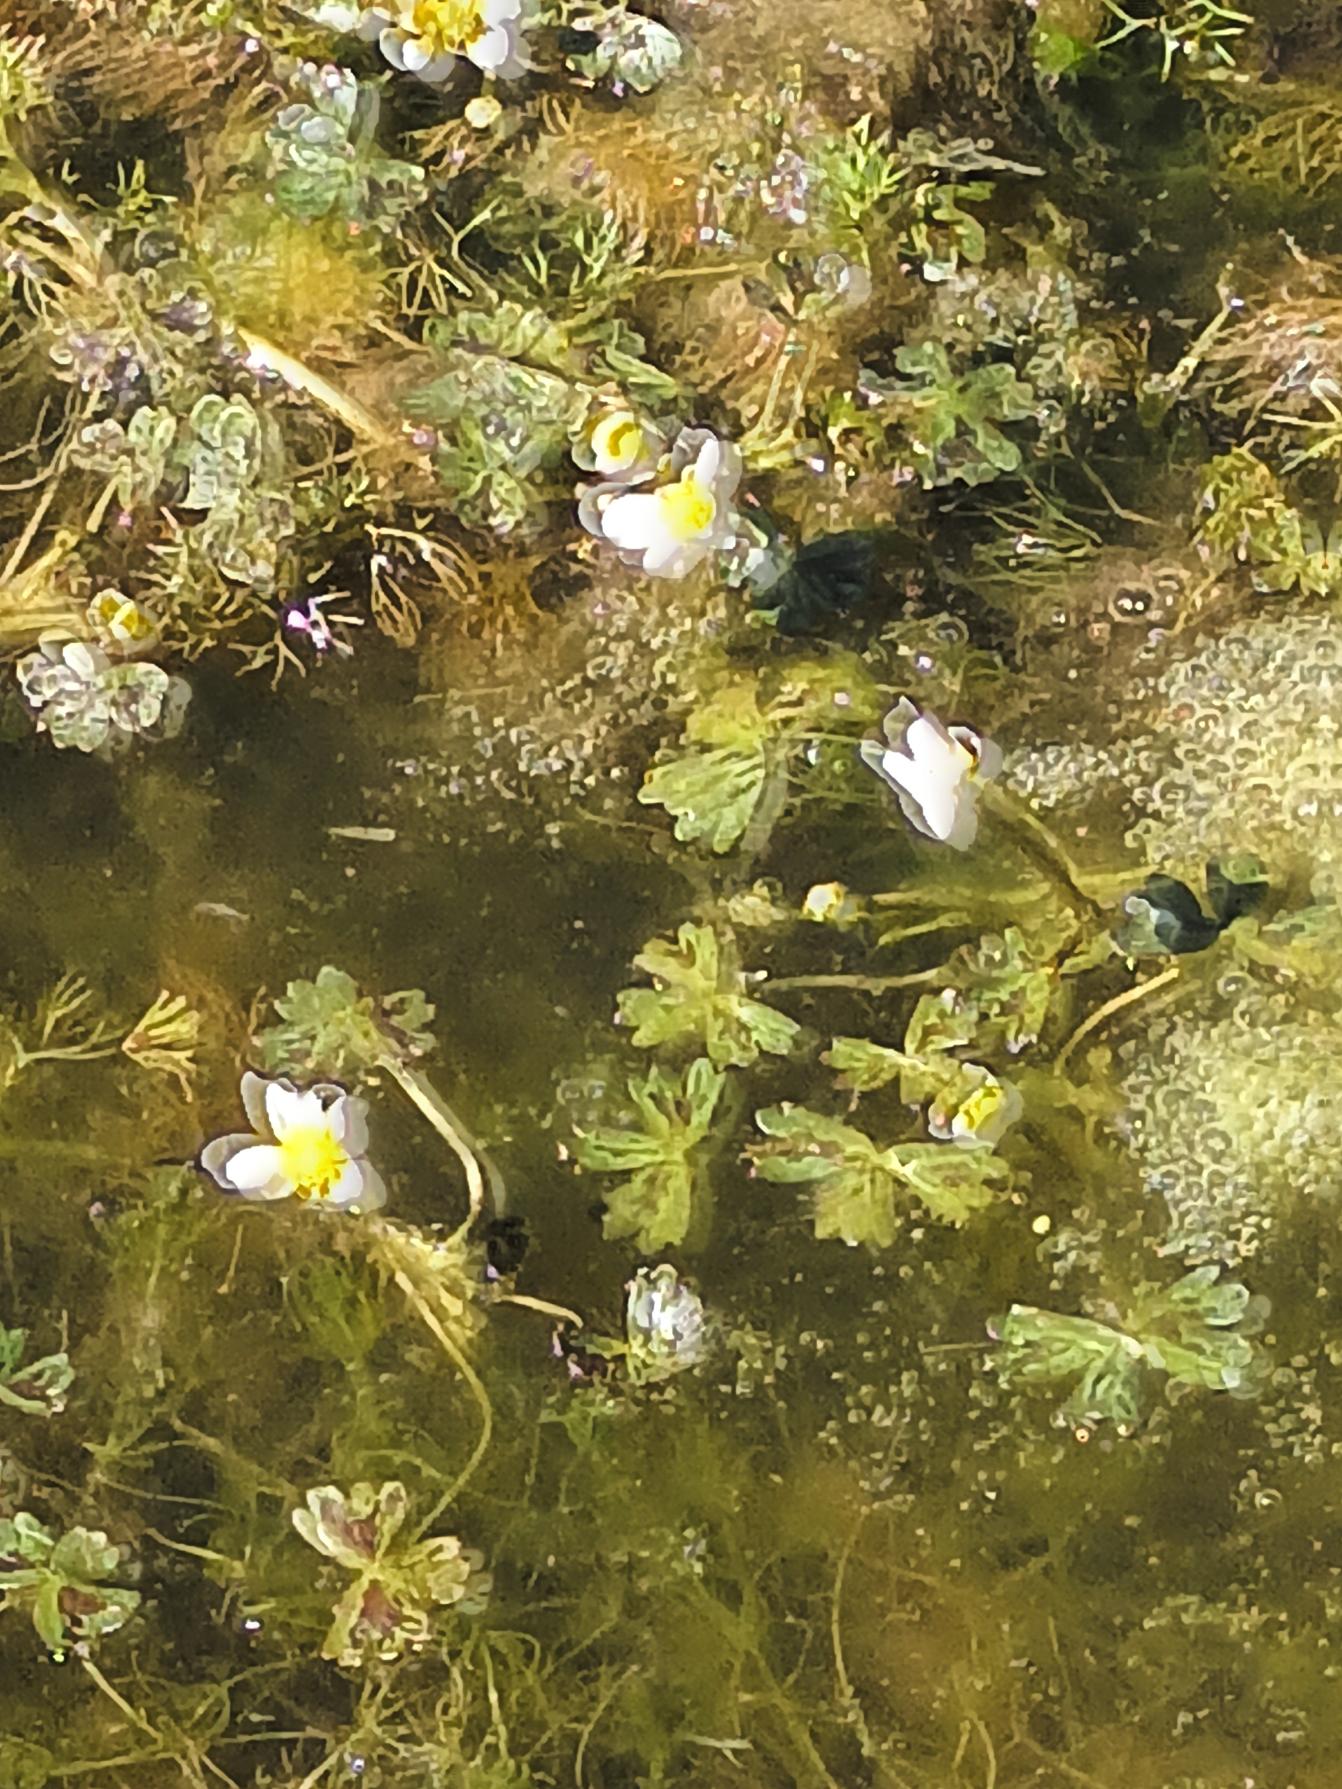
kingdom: Plantae
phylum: Tracheophyta
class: Magnoliopsida
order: Ranunculales
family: Ranunculaceae
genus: Ranunculus
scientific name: Ranunculus peltatus
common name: Strand-vandranunkel
